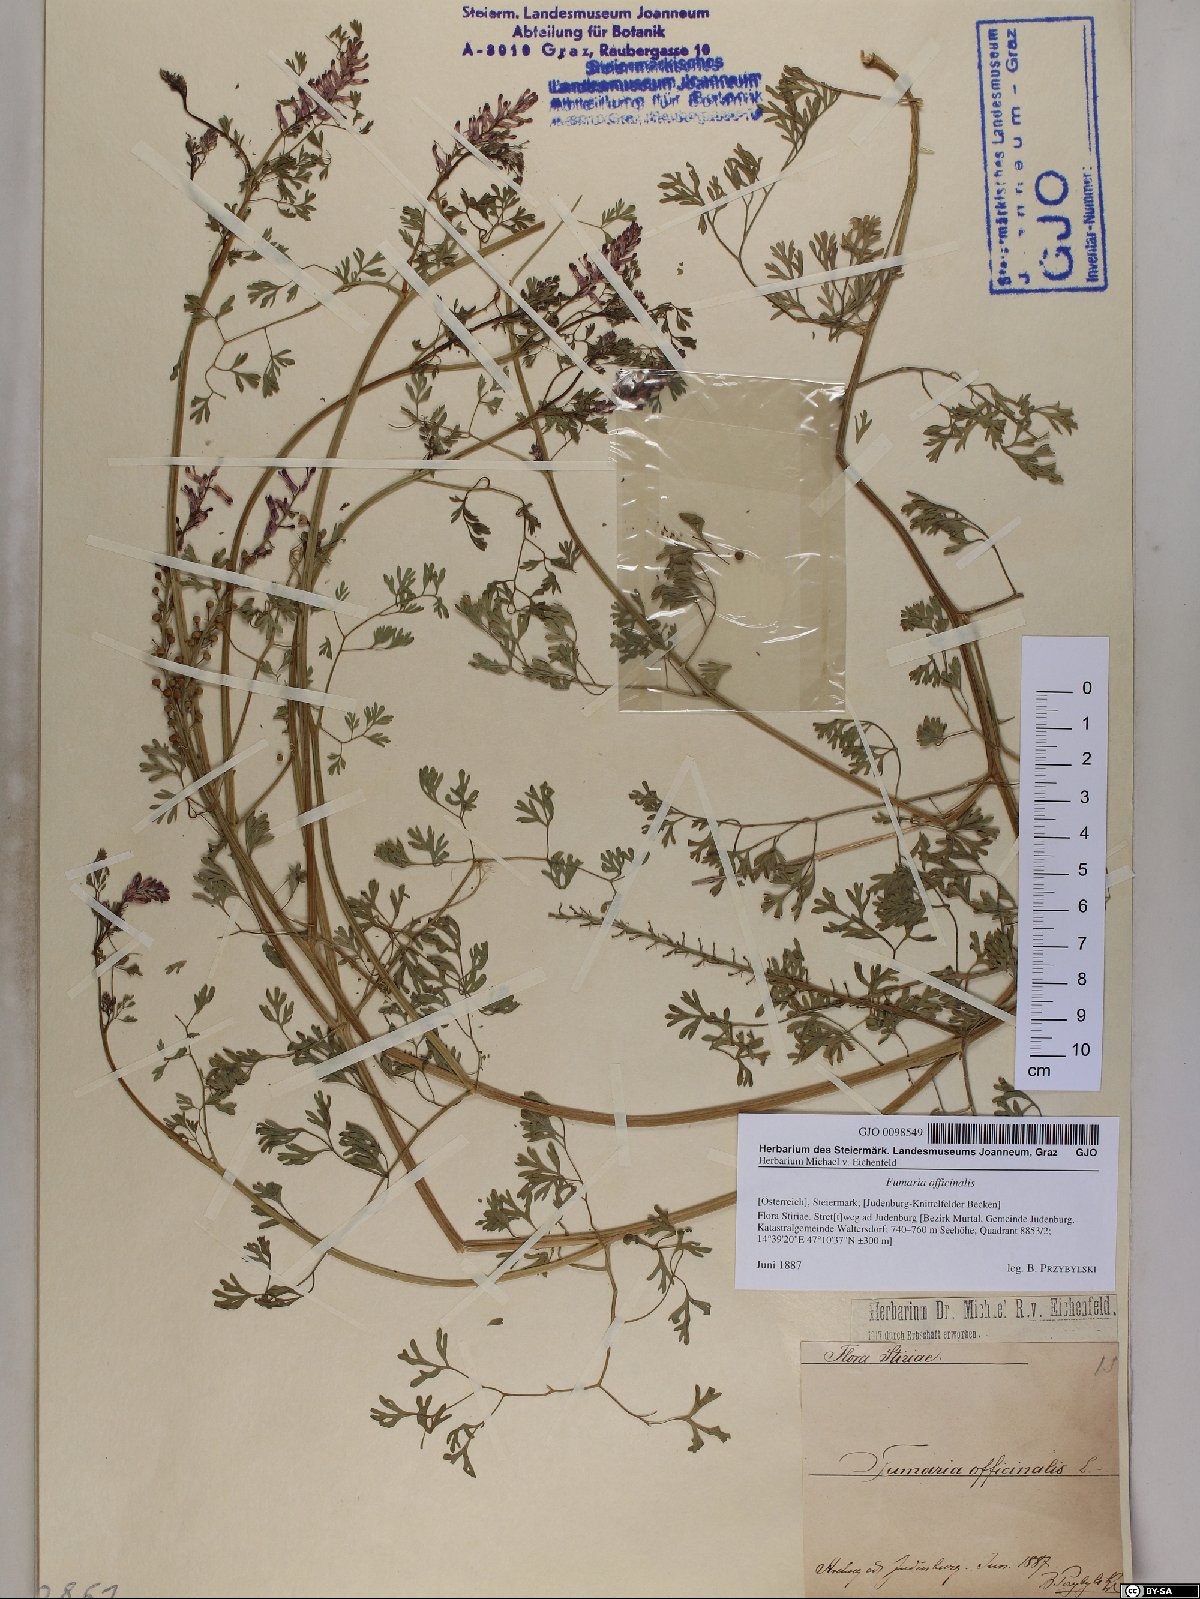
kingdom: Plantae
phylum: Tracheophyta
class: Magnoliopsida
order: Ranunculales
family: Papaveraceae
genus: Fumaria
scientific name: Fumaria officinalis
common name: Common fumitory
